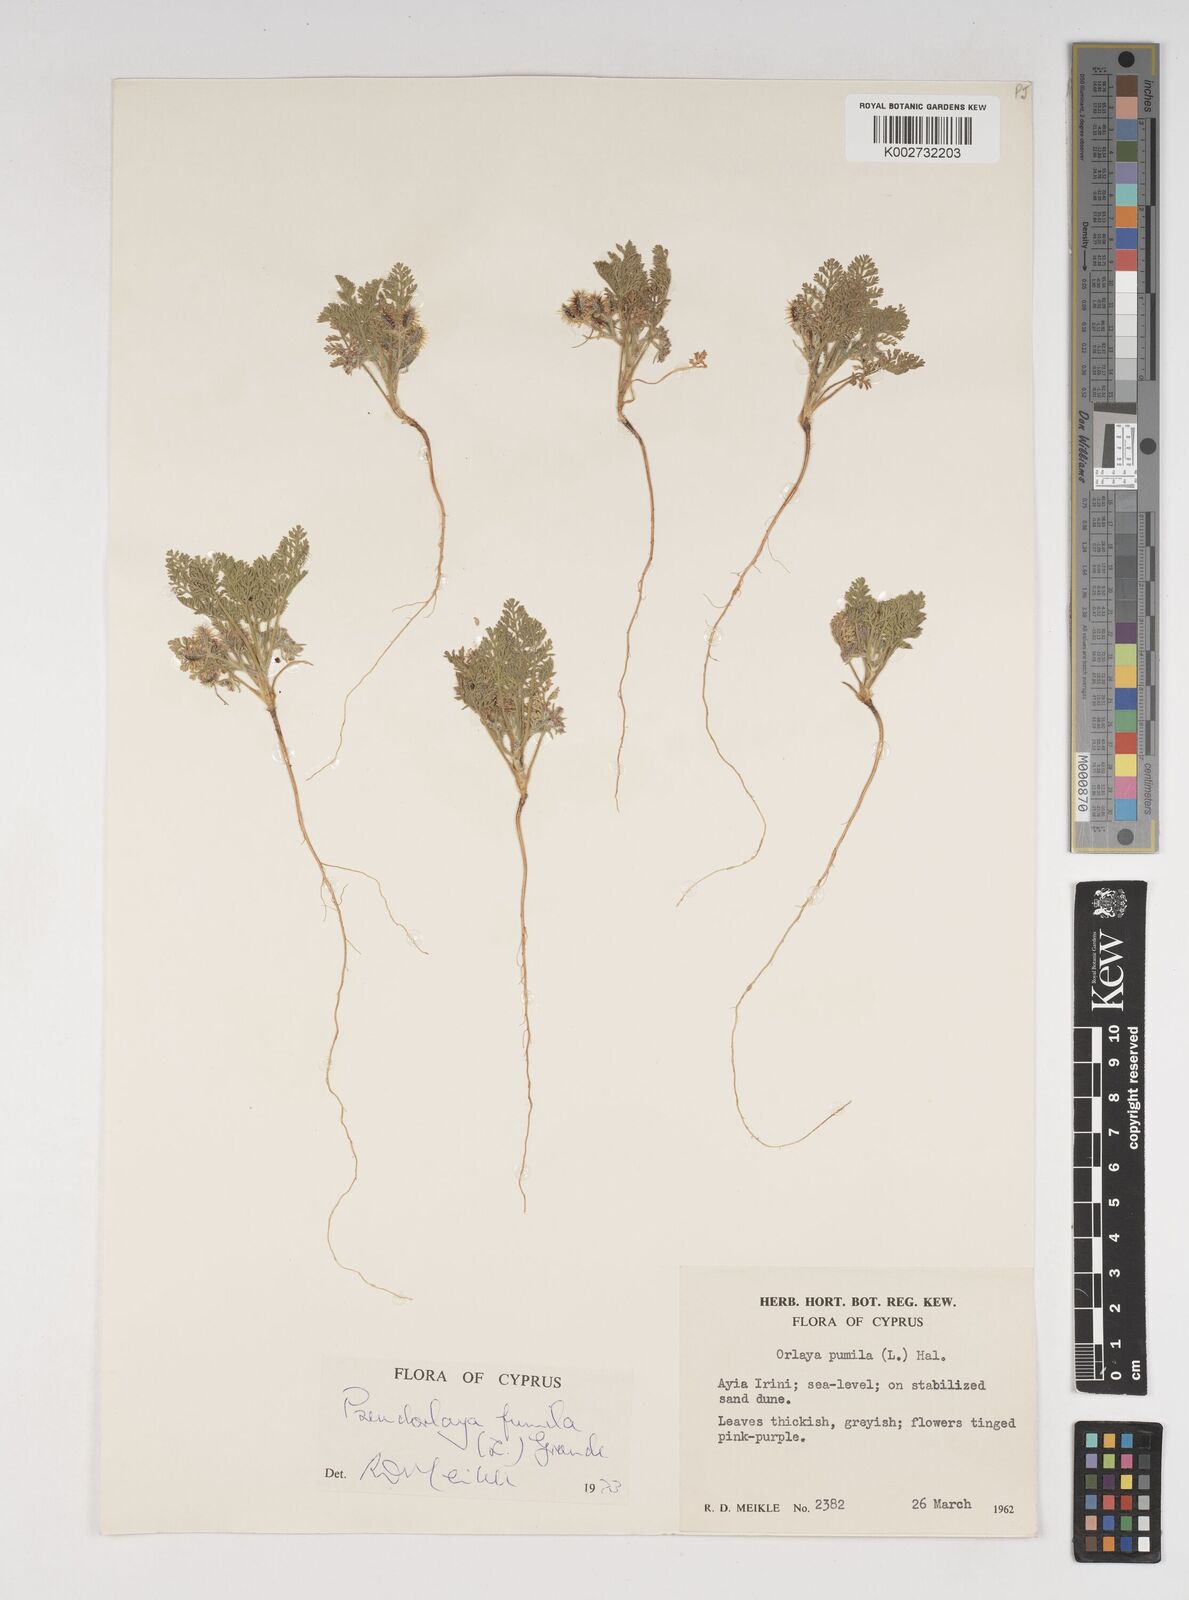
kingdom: Plantae
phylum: Tracheophyta
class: Magnoliopsida
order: Apiales
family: Apiaceae
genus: Daucus
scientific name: Daucus pumilus
